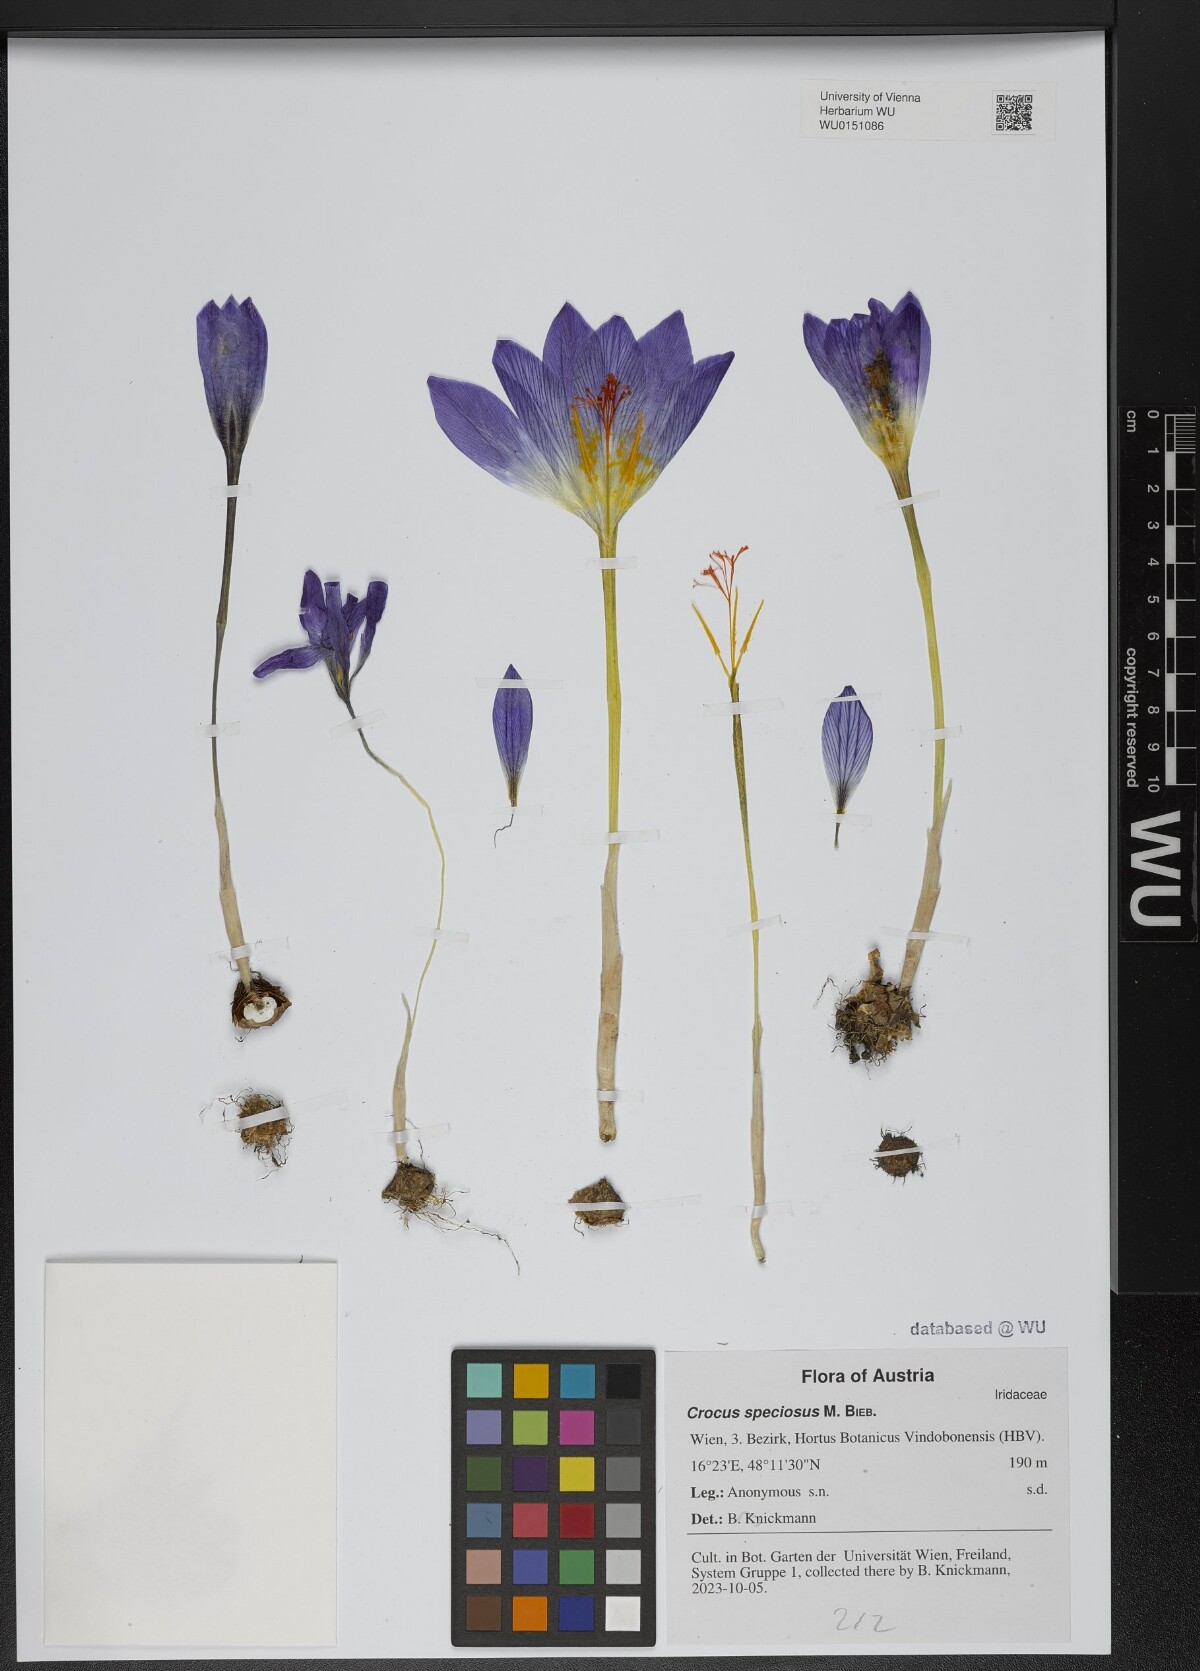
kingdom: Plantae
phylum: Tracheophyta
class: Liliopsida
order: Asparagales
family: Iridaceae
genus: Crocus
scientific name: Crocus kotschyanus
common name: Kotschy's crocus
